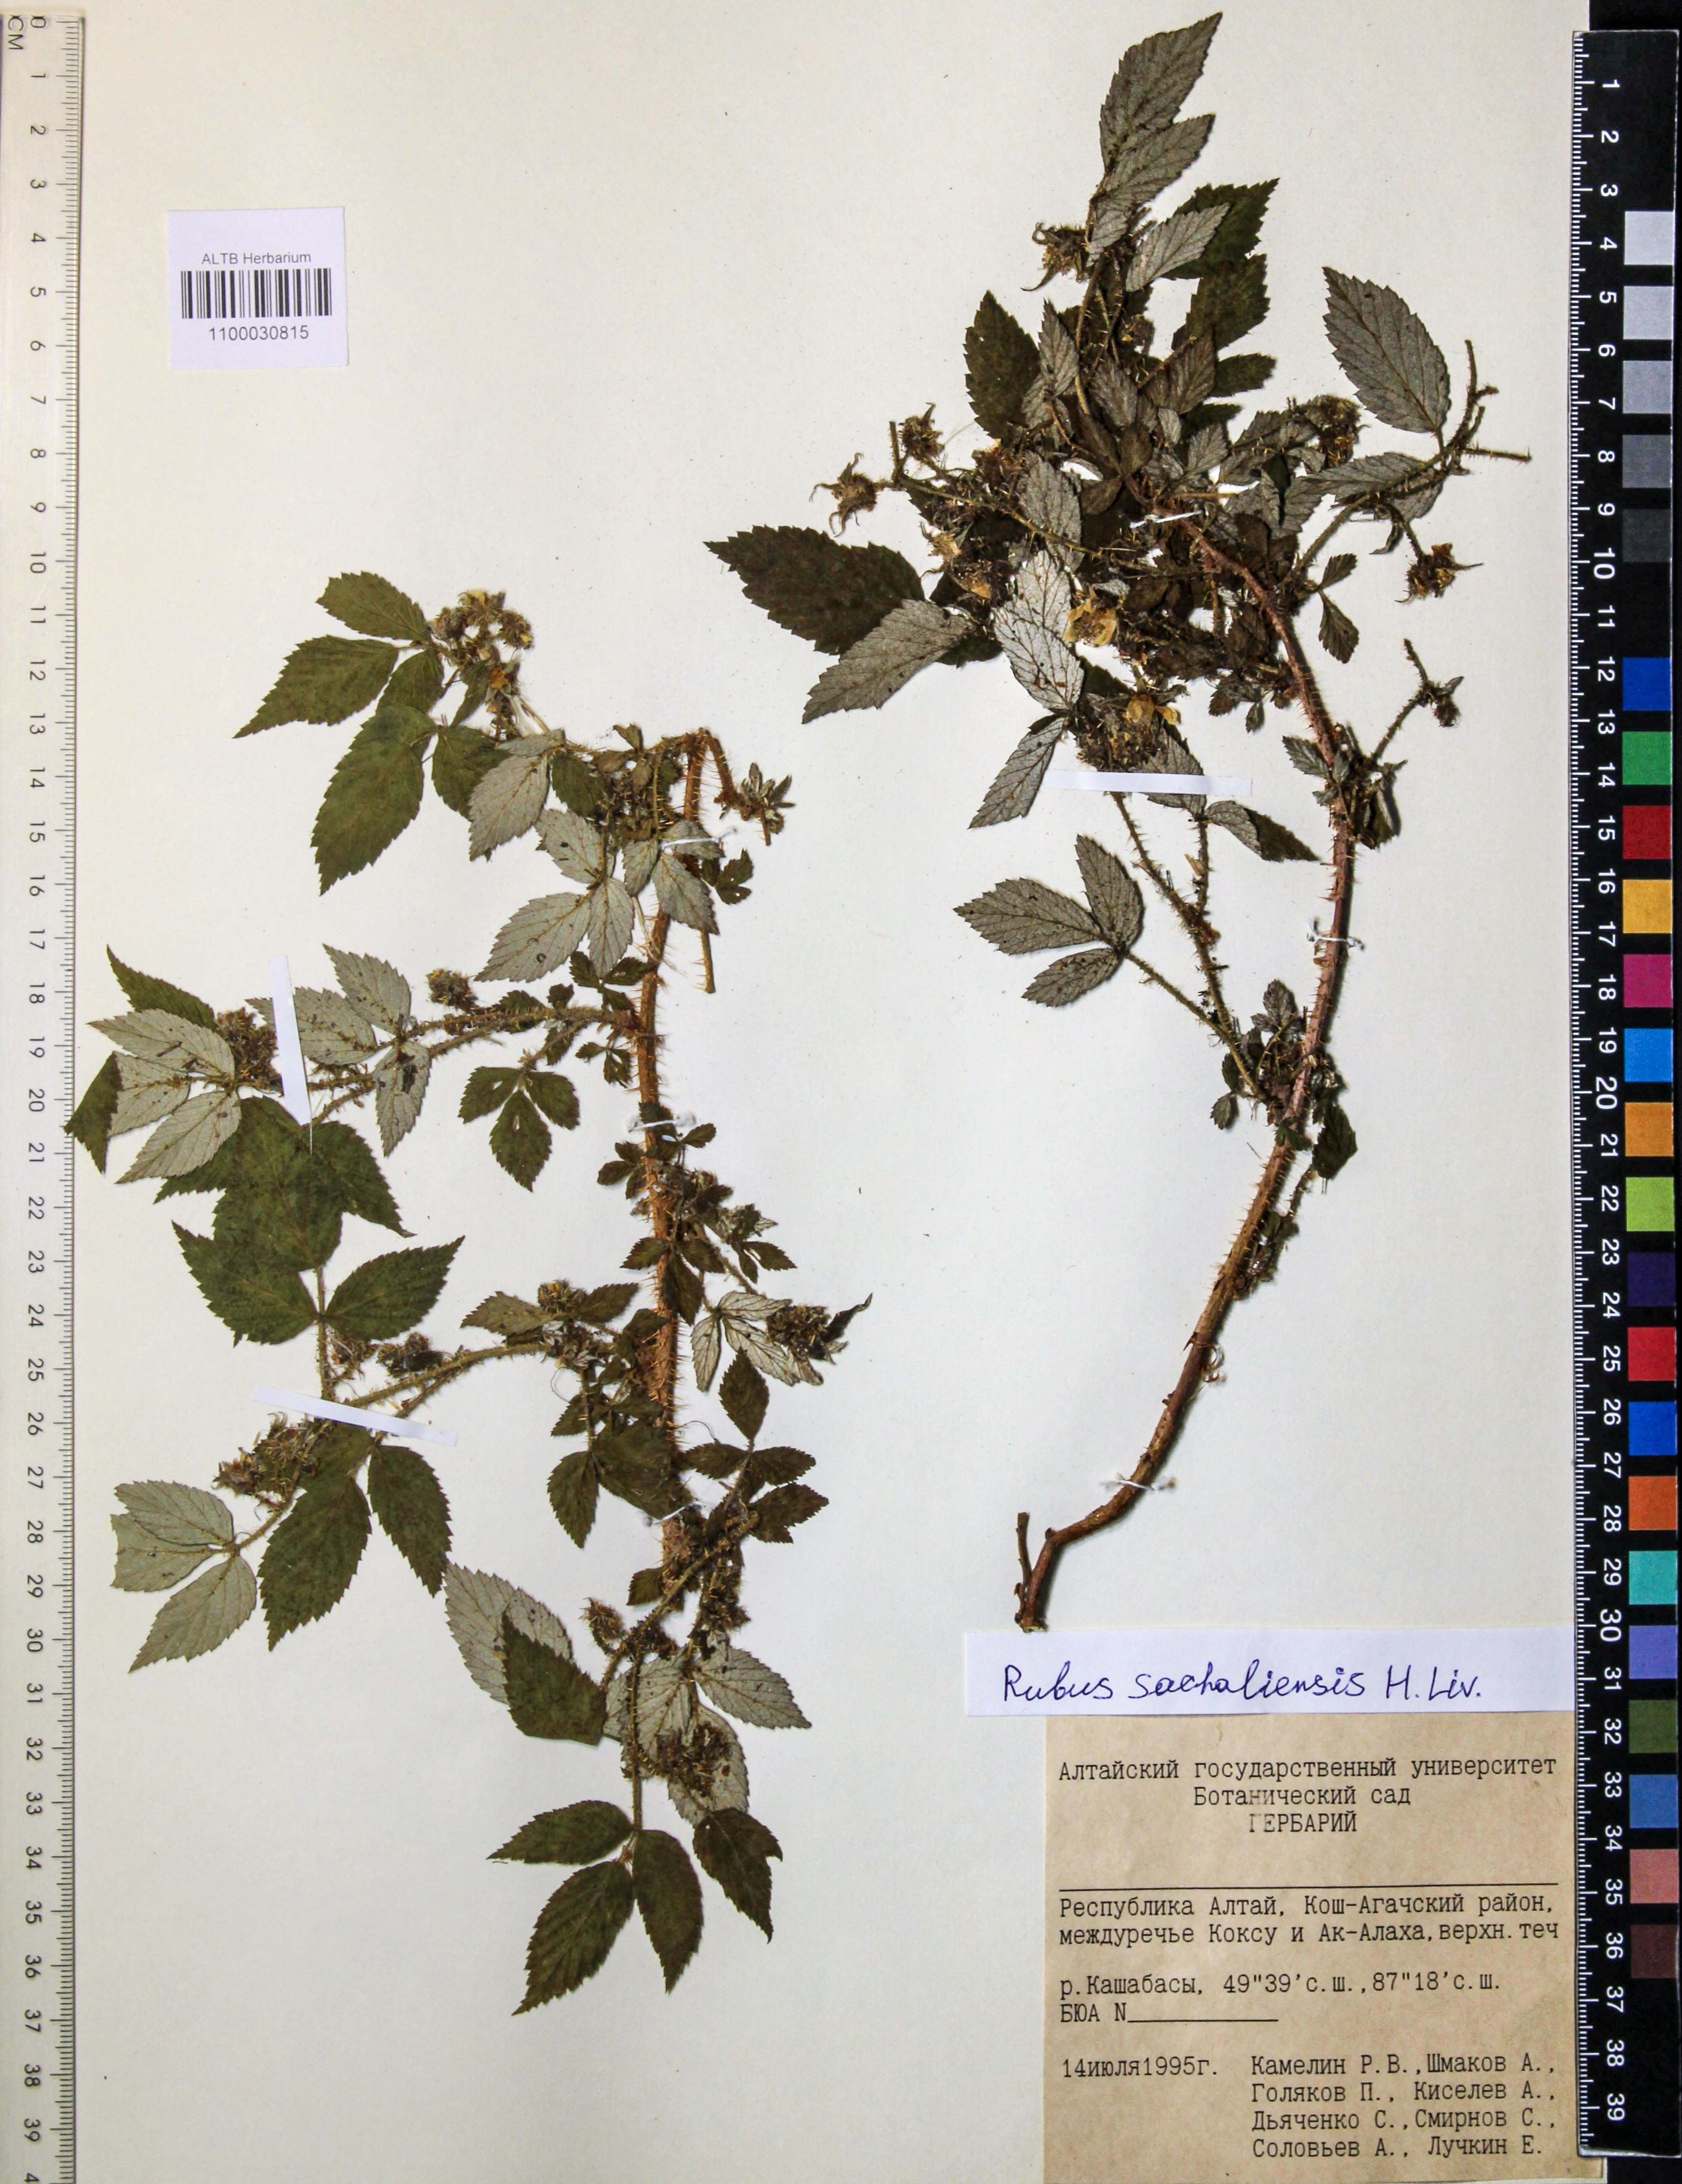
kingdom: Plantae
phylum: Tracheophyta
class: Magnoliopsida
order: Rosales
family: Rosaceae
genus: Rubus
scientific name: Rubus sachalinensis
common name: Red raspberry
